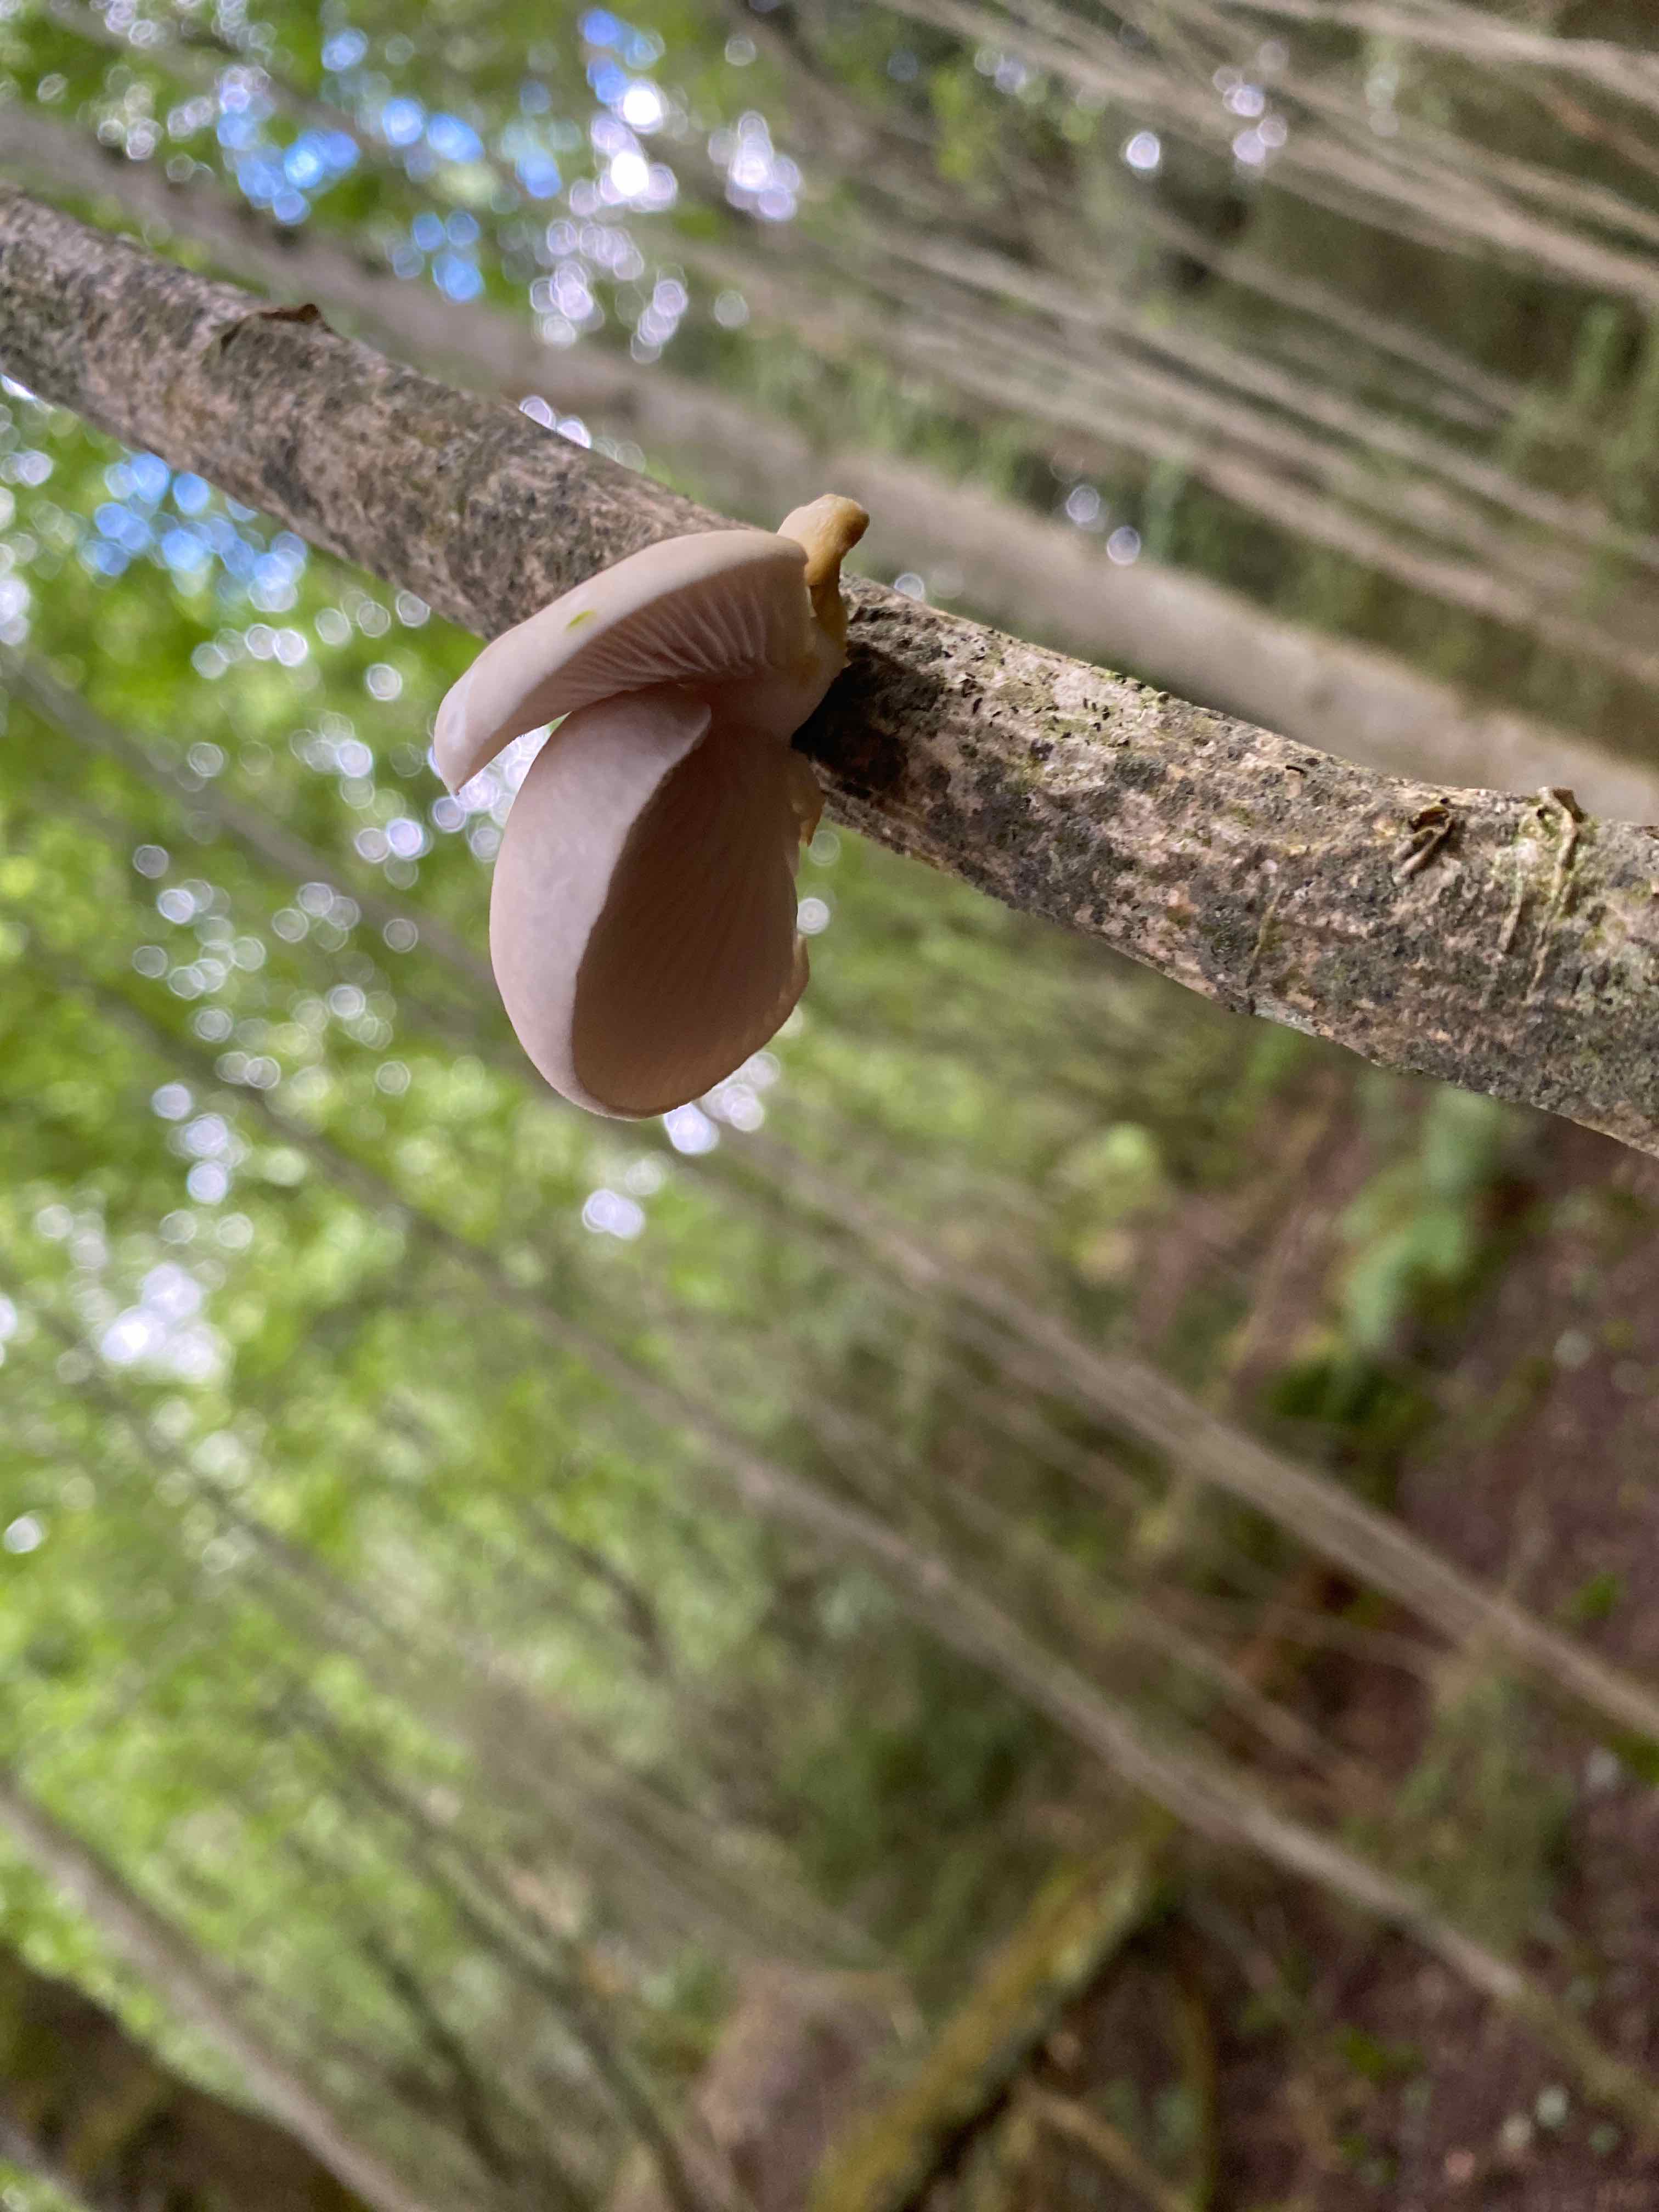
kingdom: Fungi
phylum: Basidiomycota
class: Agaricomycetes
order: Agaricales
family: Pleurotaceae
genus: Pleurotus
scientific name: Pleurotus pulmonarius
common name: sommer-østershat
